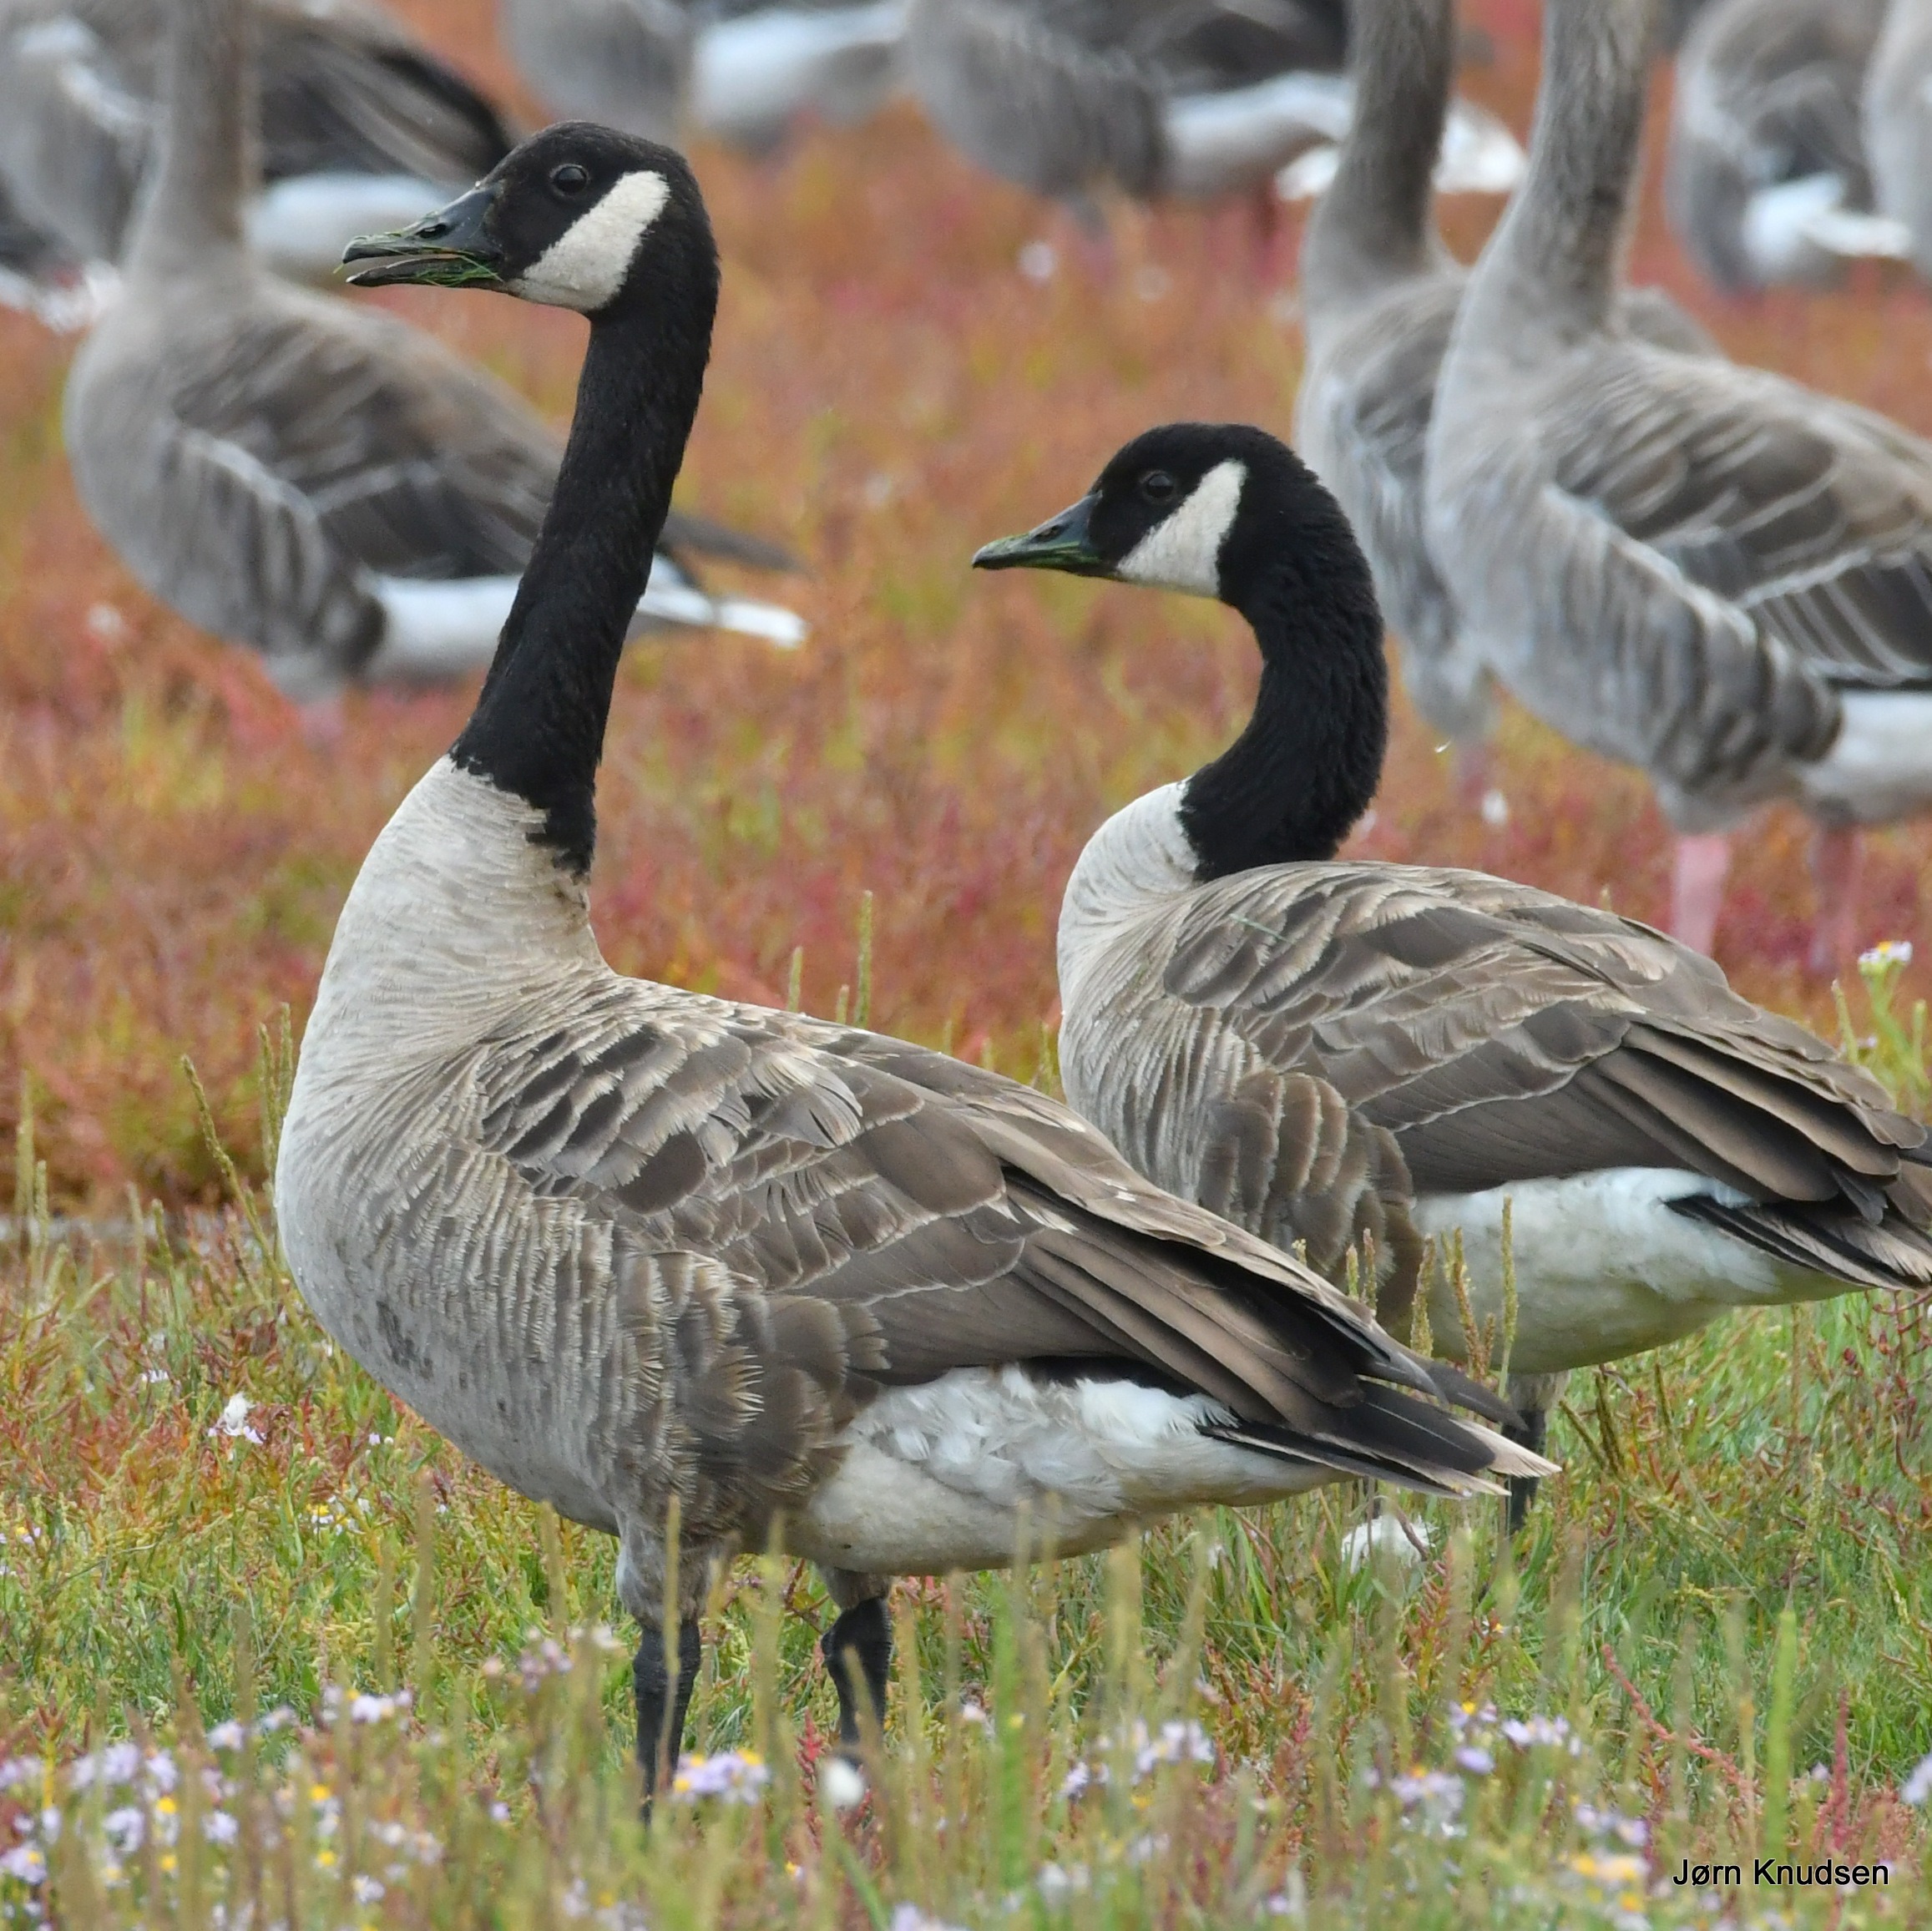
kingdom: Animalia
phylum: Chordata
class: Aves
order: Anseriformes
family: Anatidae
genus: Branta
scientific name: Branta canadensis
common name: Canadagås
